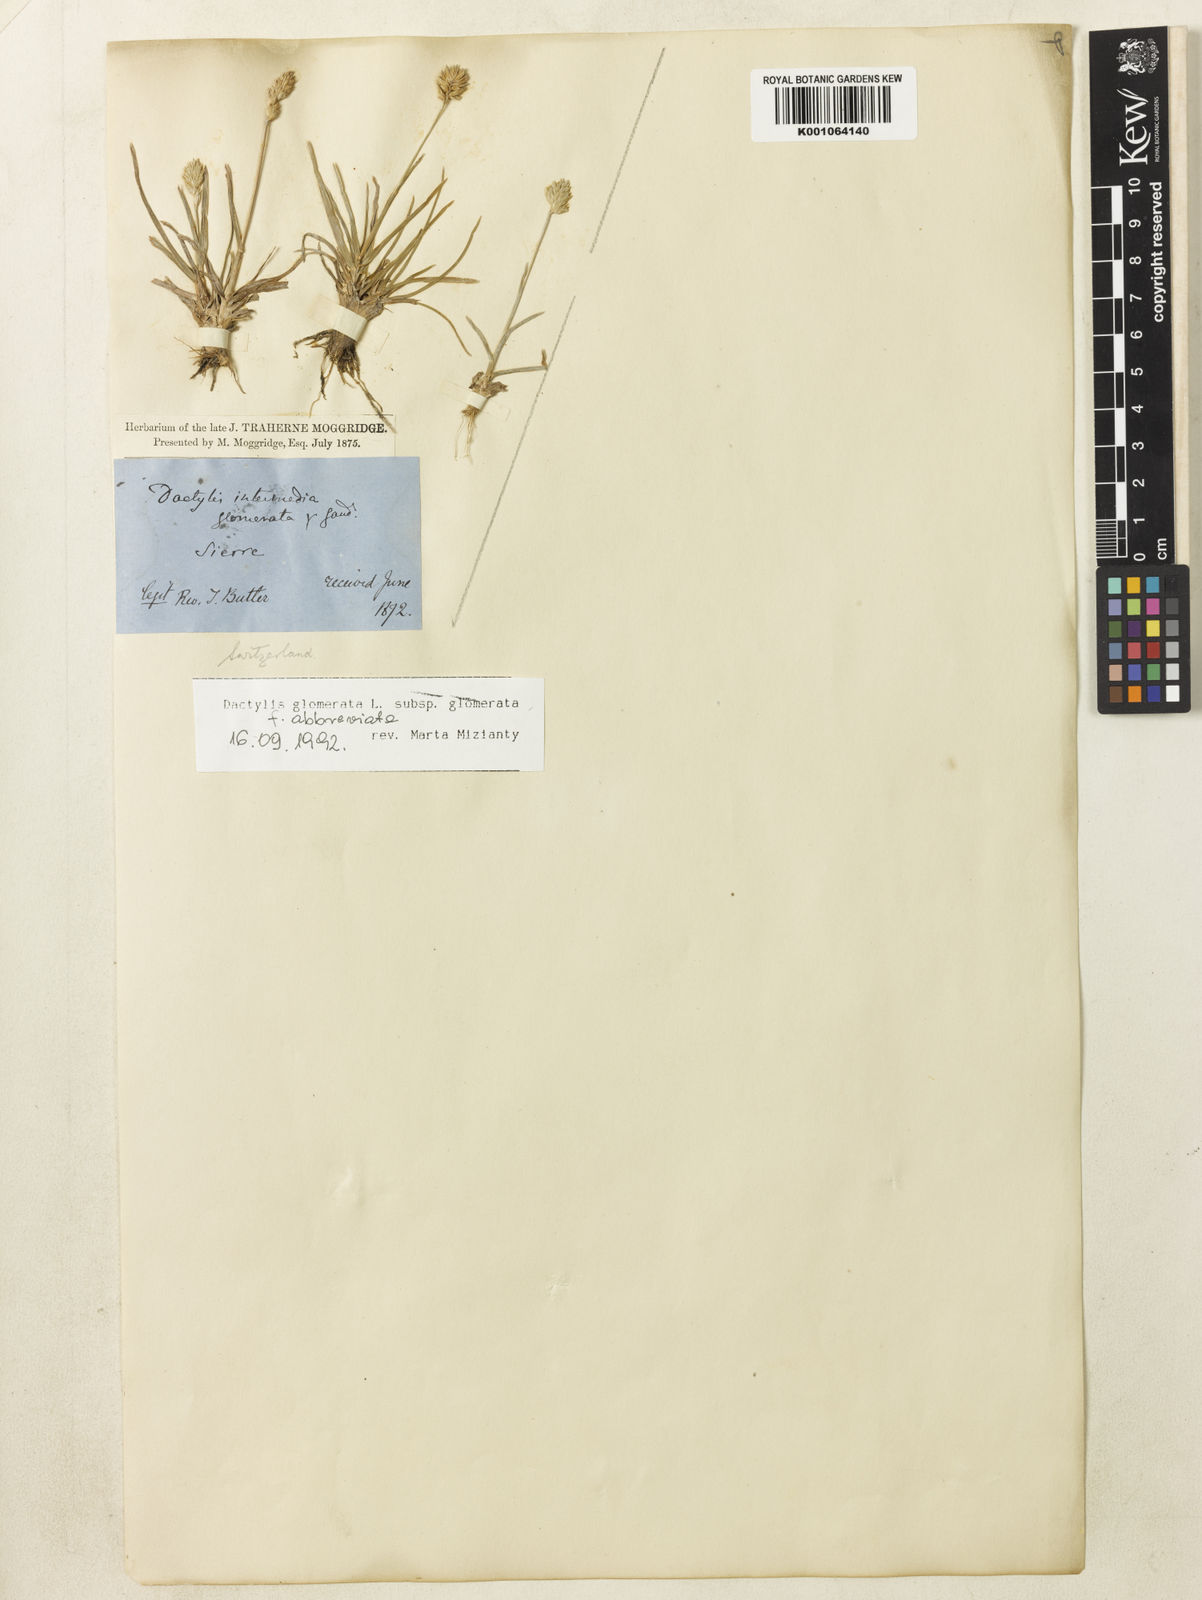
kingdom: Plantae
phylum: Tracheophyta
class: Liliopsida
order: Poales
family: Poaceae
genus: Dactylis
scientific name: Dactylis glomerata
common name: Orchardgrass
